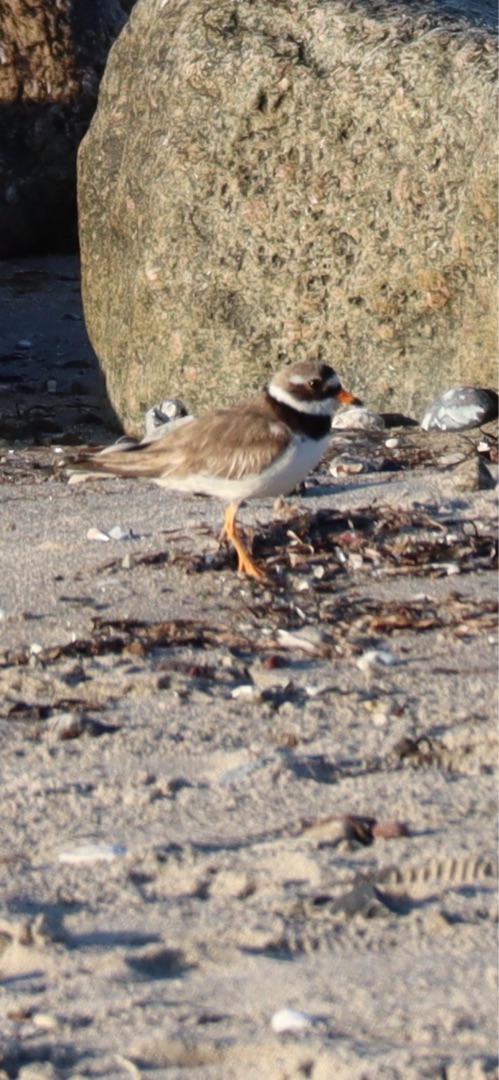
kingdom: Animalia
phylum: Chordata
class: Aves
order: Charadriiformes
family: Charadriidae
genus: Charadrius
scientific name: Charadrius hiaticula
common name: Stor præstekrave
